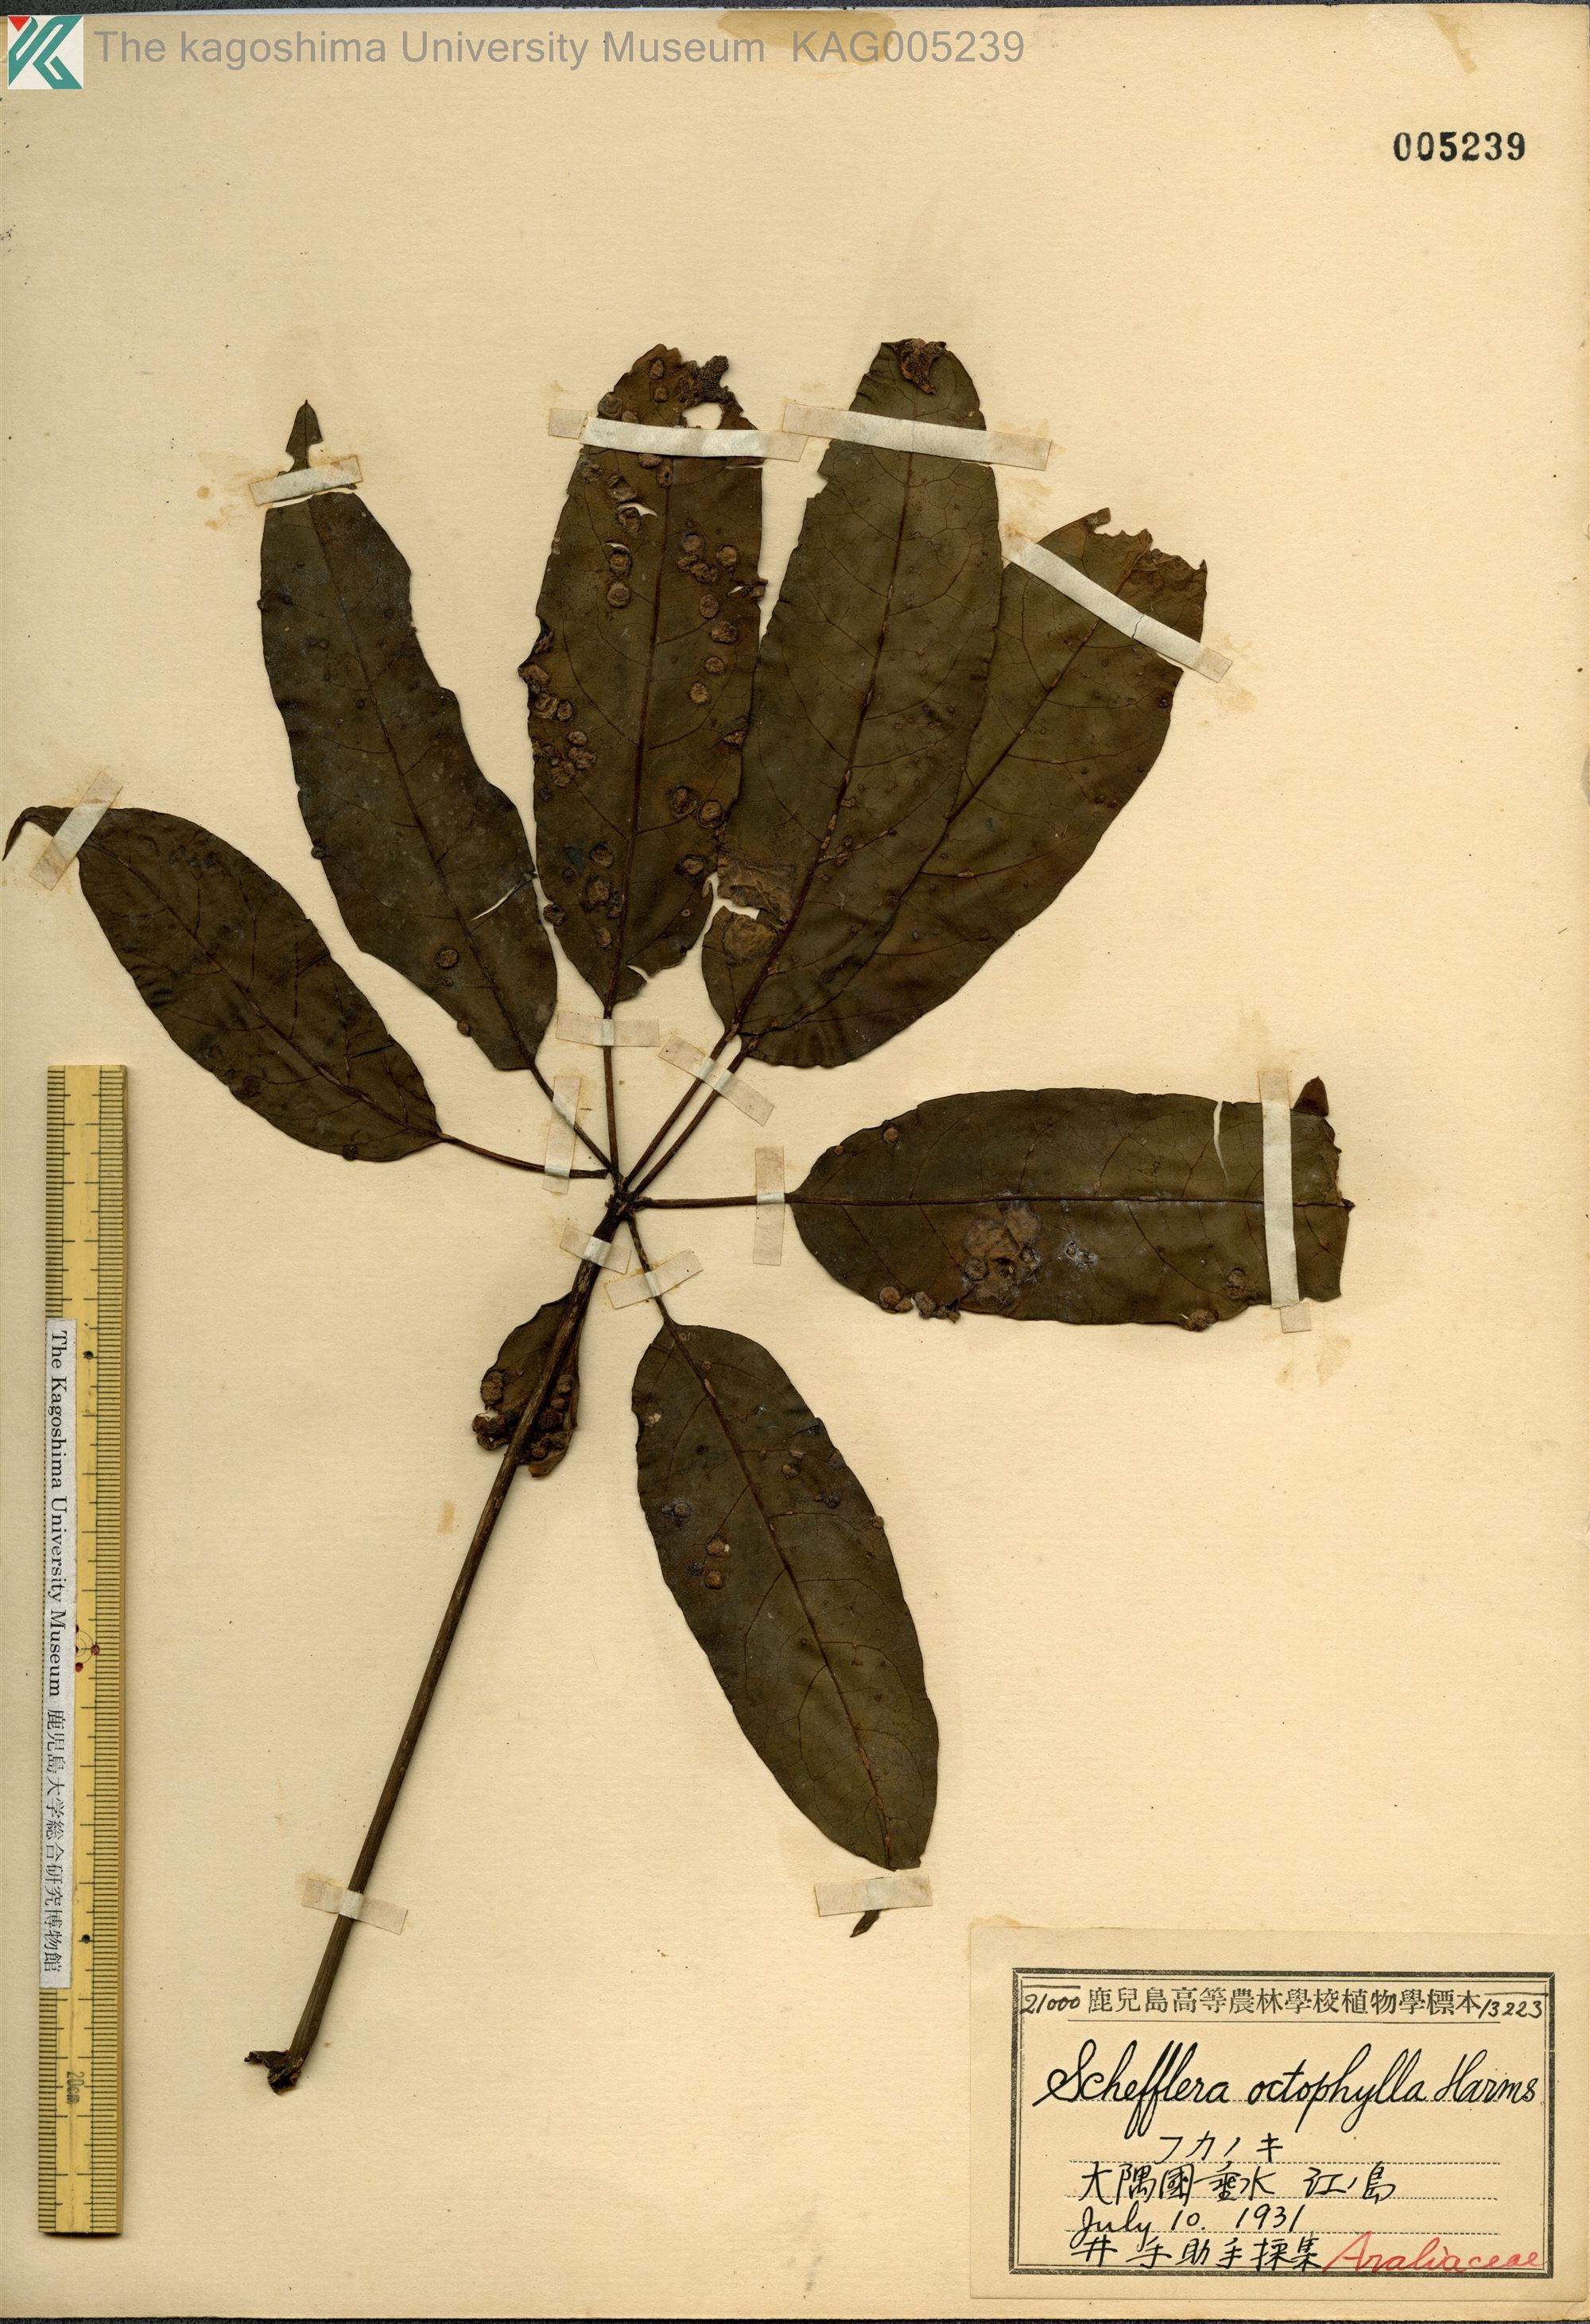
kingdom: Plantae
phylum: Tracheophyta
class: Magnoliopsida
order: Apiales
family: Araliaceae
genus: Heptapleurum
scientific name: Heptapleurum heptaphyllum
